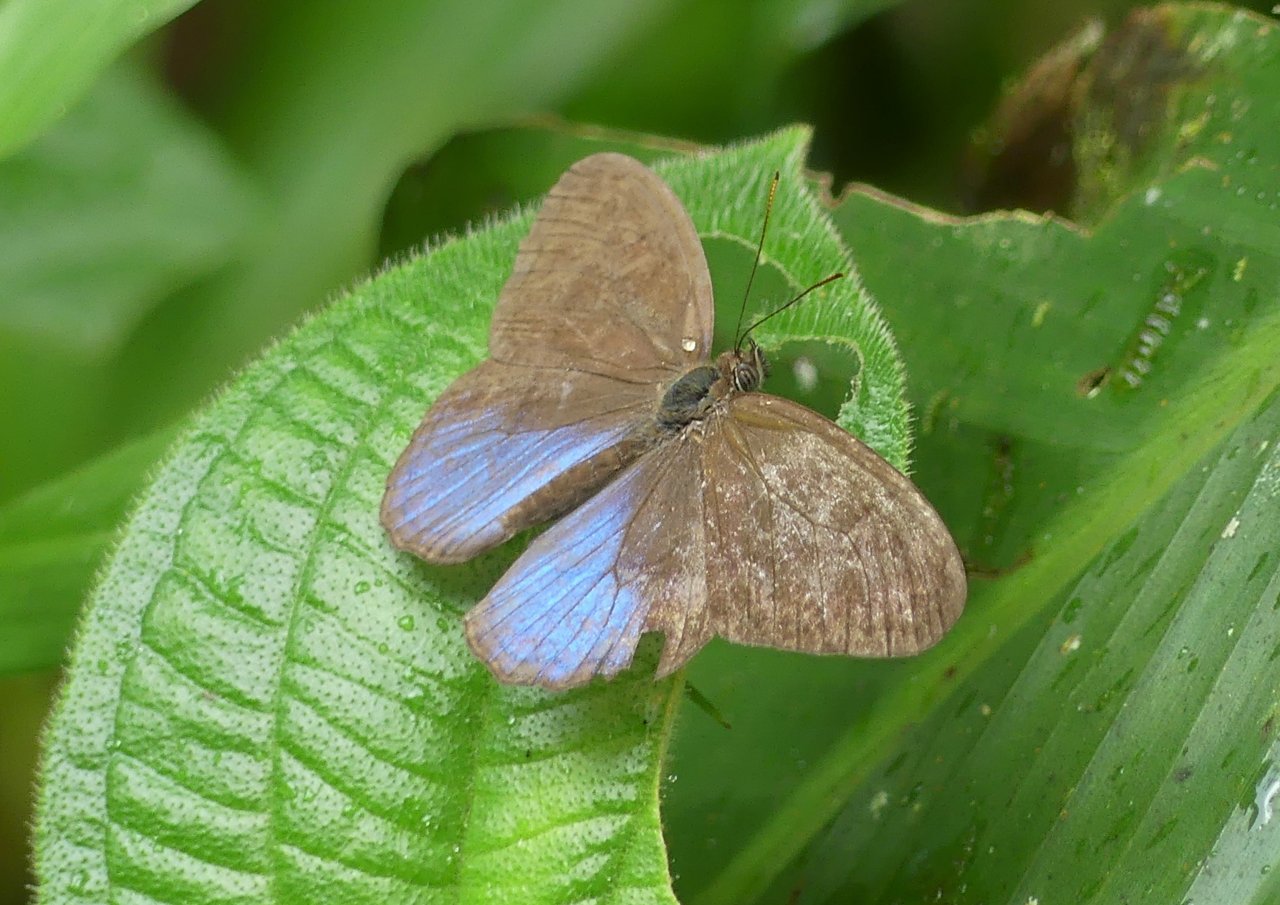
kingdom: Animalia
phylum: Arthropoda
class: Insecta
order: Lepidoptera
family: Nymphalidae
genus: Chloreuptychia
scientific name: Chloreuptychia arnaca
